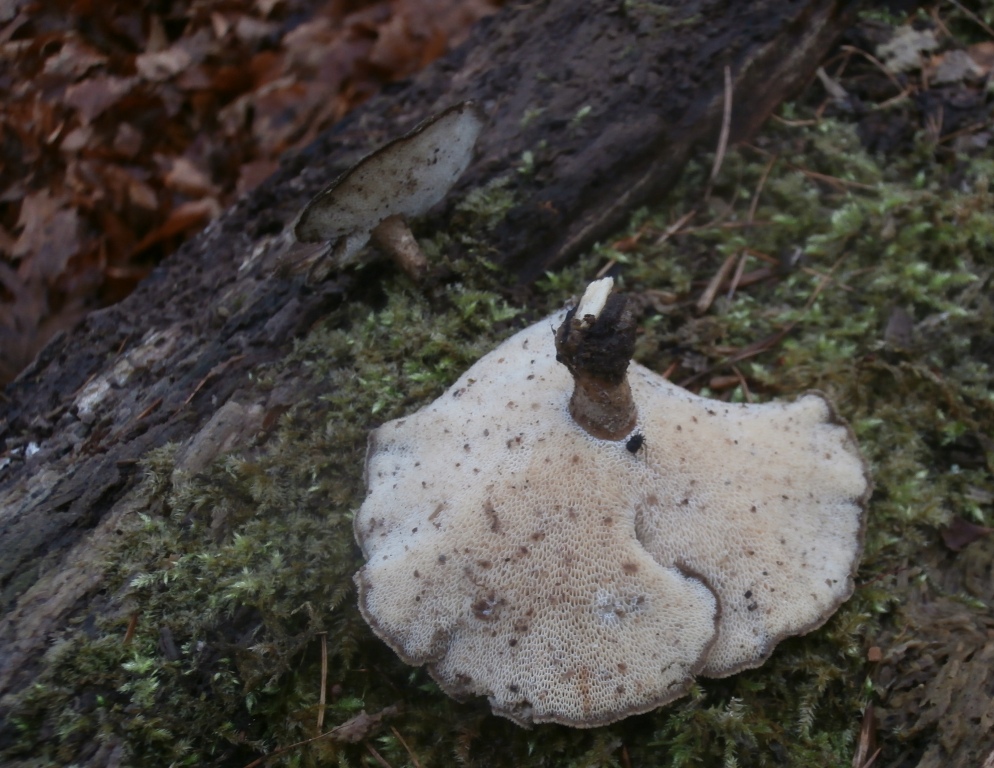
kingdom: Fungi
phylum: Basidiomycota
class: Agaricomycetes
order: Polyporales
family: Polyporaceae
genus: Lentinus
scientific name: Lentinus brumalis
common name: vinter-stilkporesvamp
